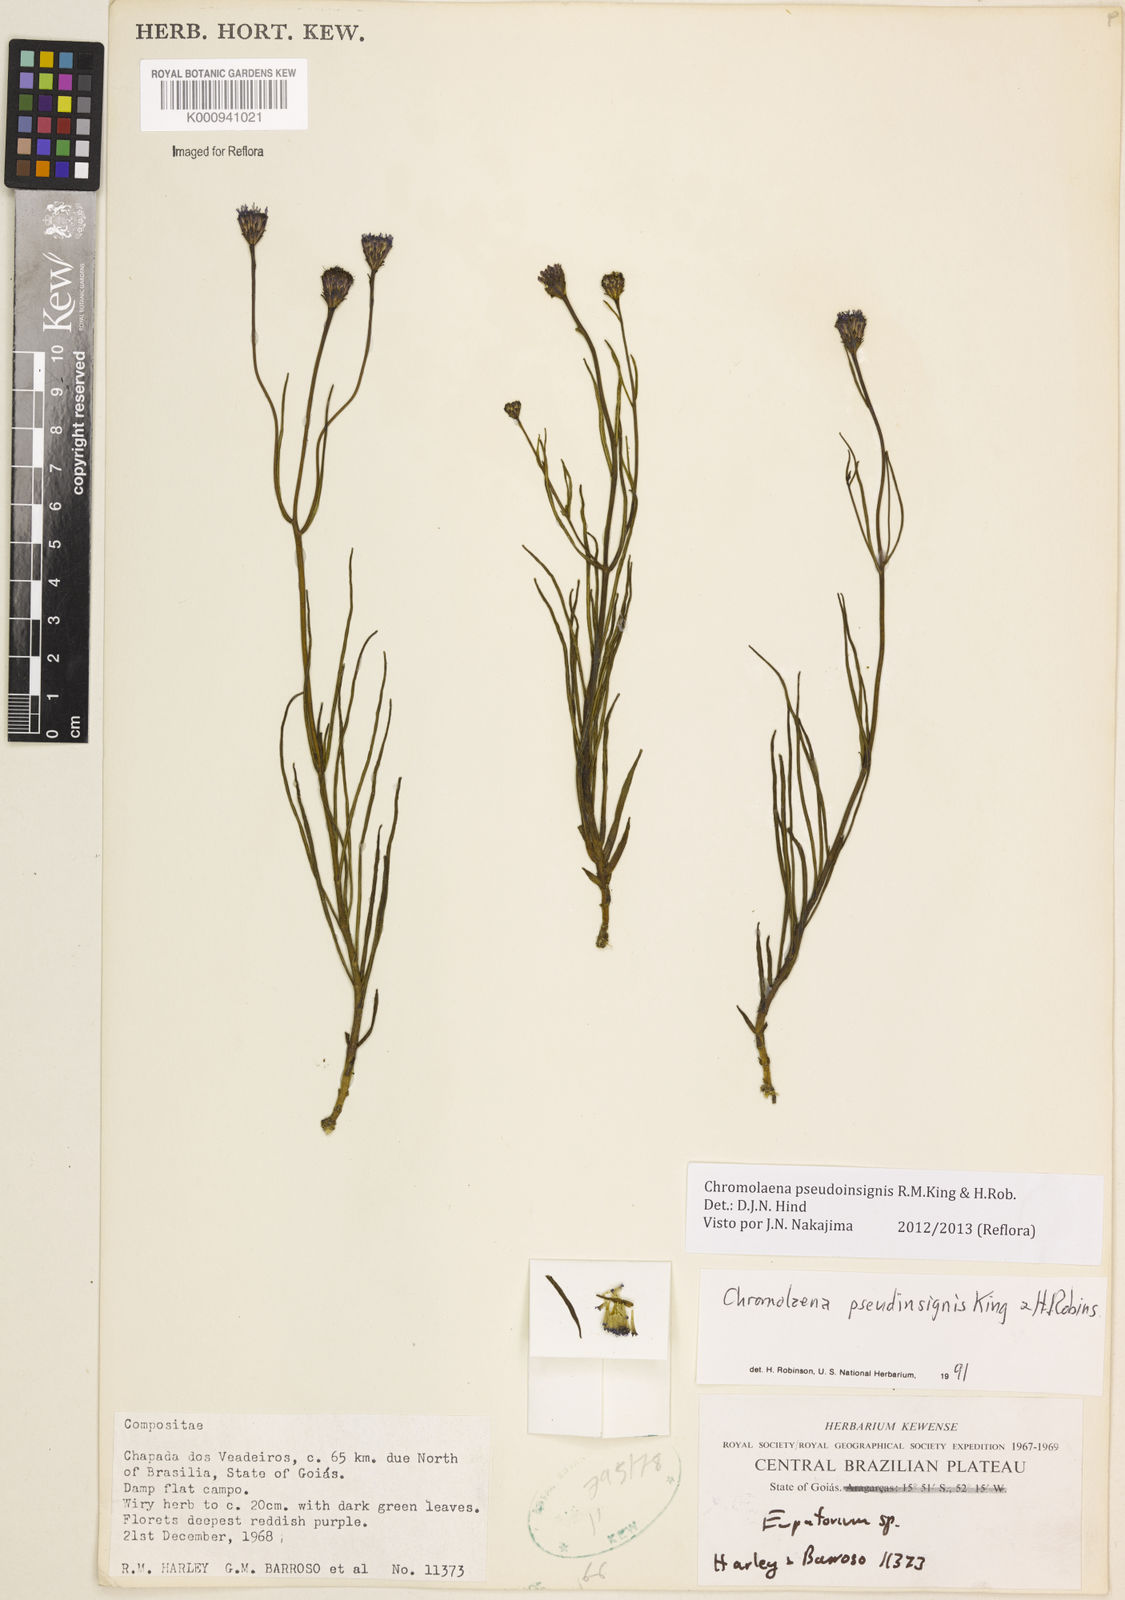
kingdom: Plantae
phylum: Tracheophyta
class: Magnoliopsida
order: Asterales
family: Asteraceae
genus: Chromolaena
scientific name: Chromolaena
